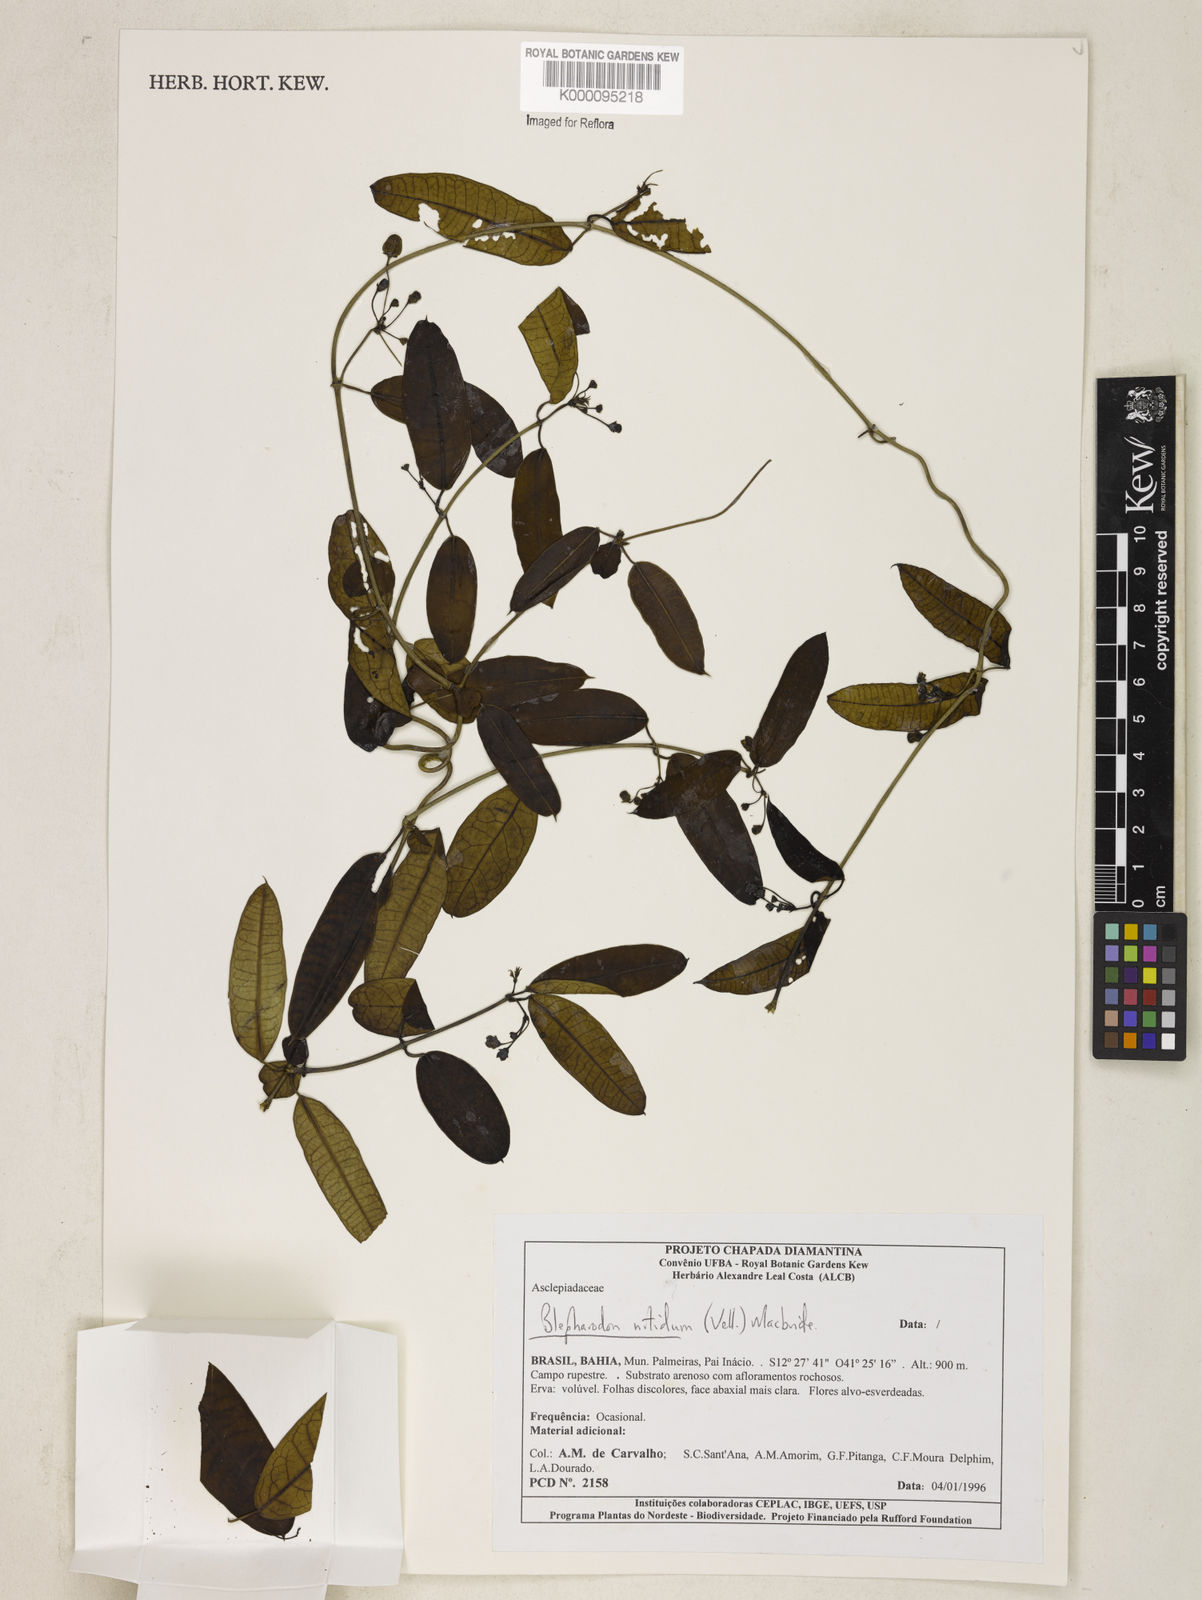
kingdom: Plantae
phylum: Tracheophyta
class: Magnoliopsida
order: Gentianales
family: Apocynaceae
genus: Blepharodon
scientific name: Blepharodon pictum
